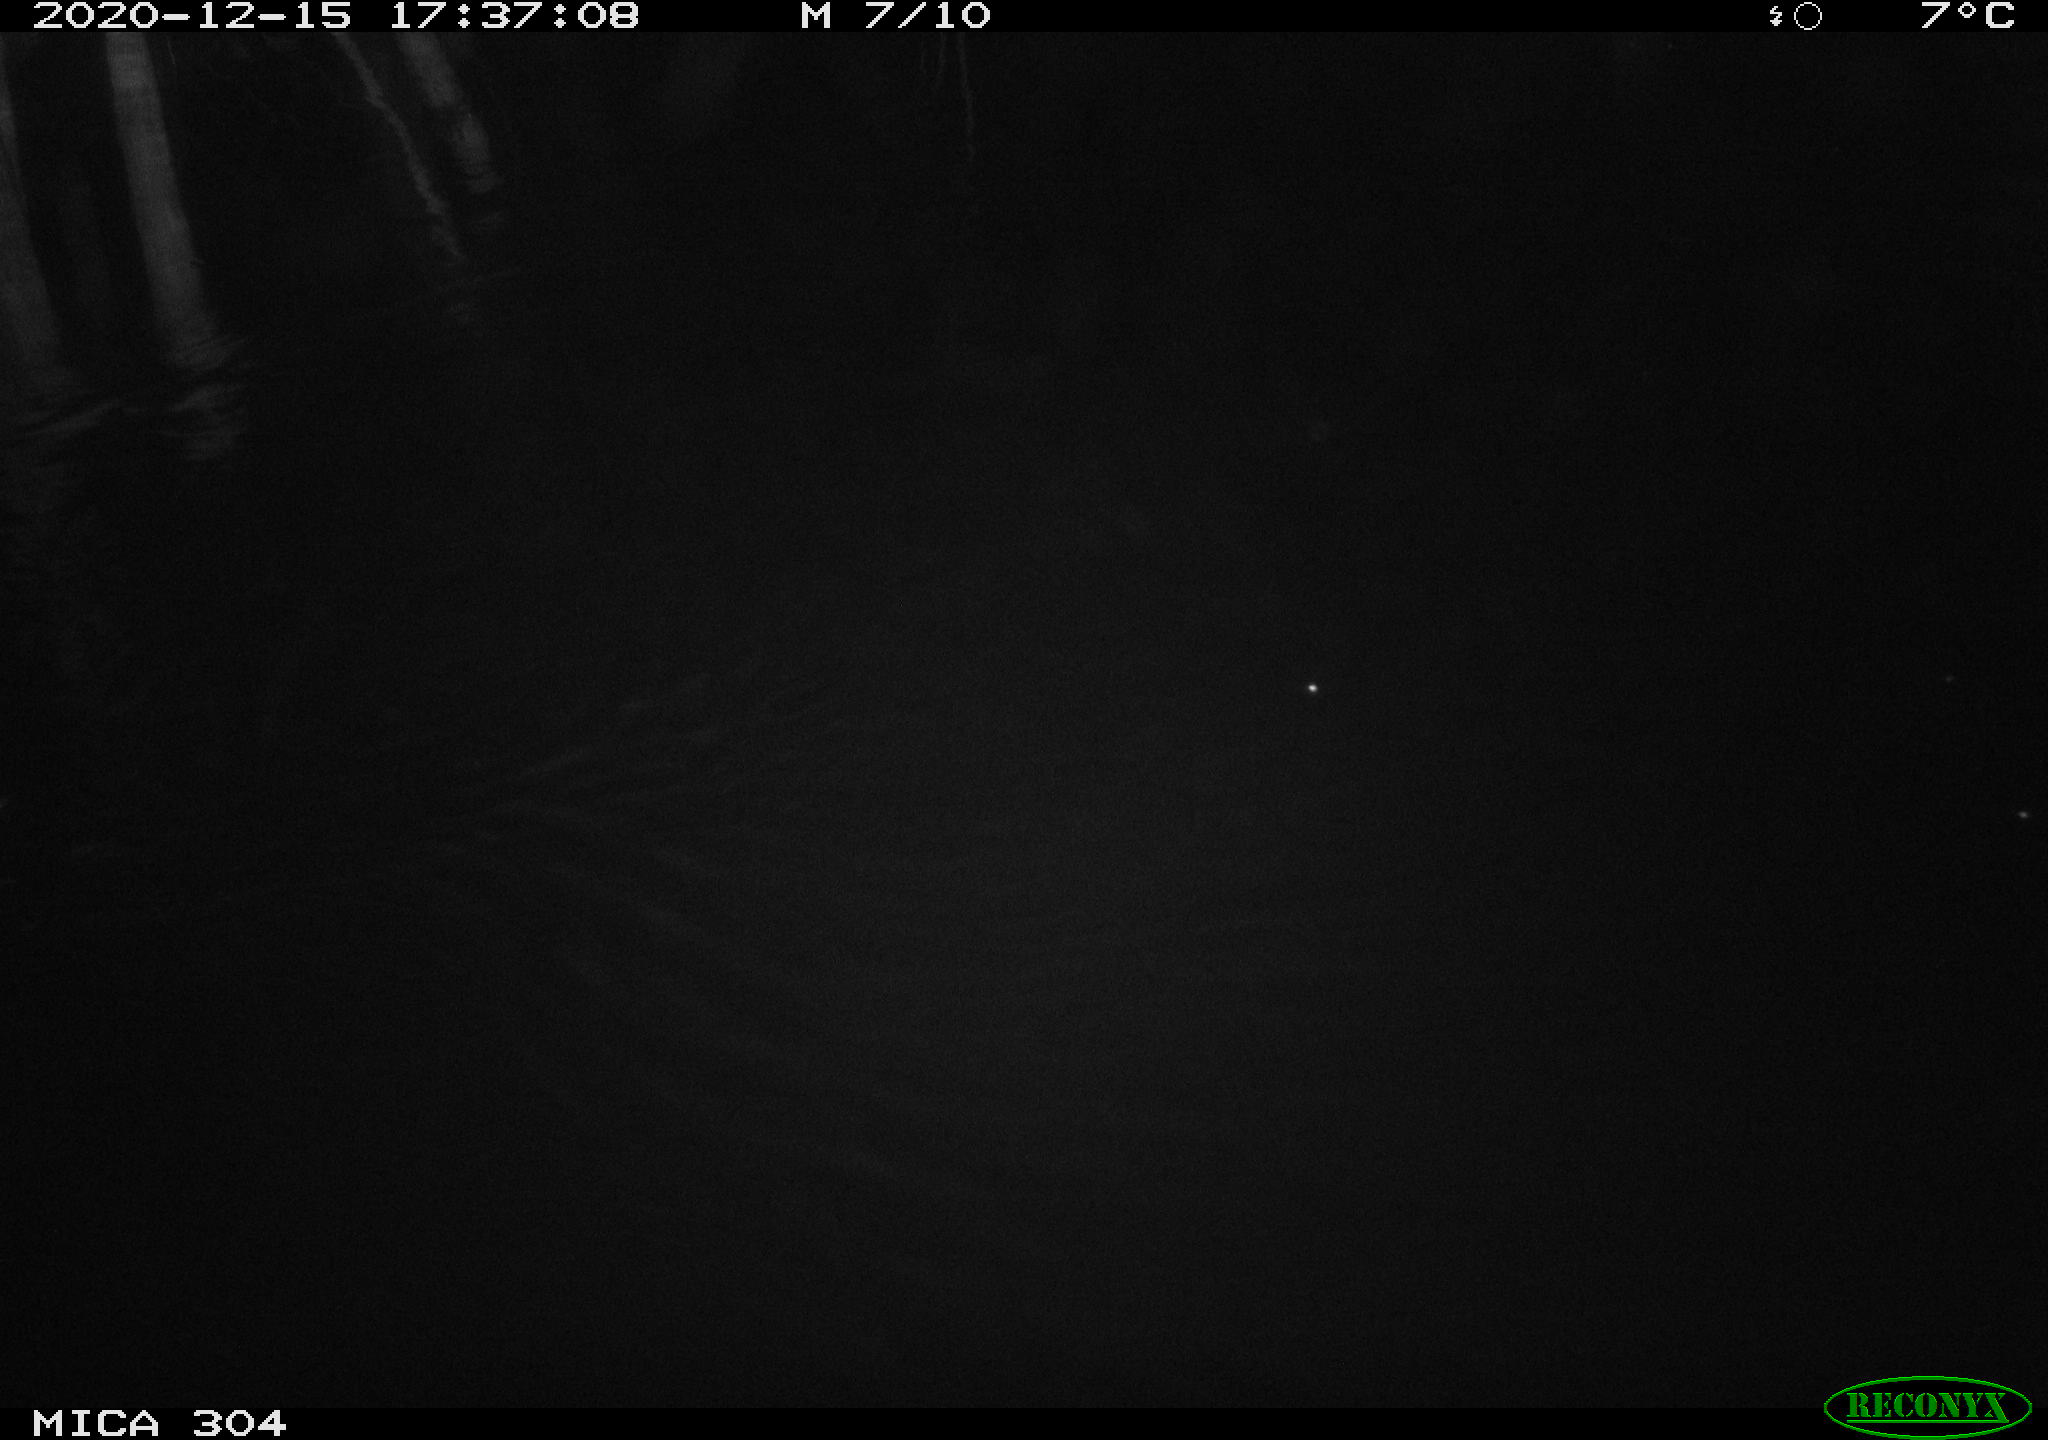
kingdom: Animalia
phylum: Chordata
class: Mammalia
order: Rodentia
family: Muridae
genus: Rattus
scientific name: Rattus norvegicus
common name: Brown rat
